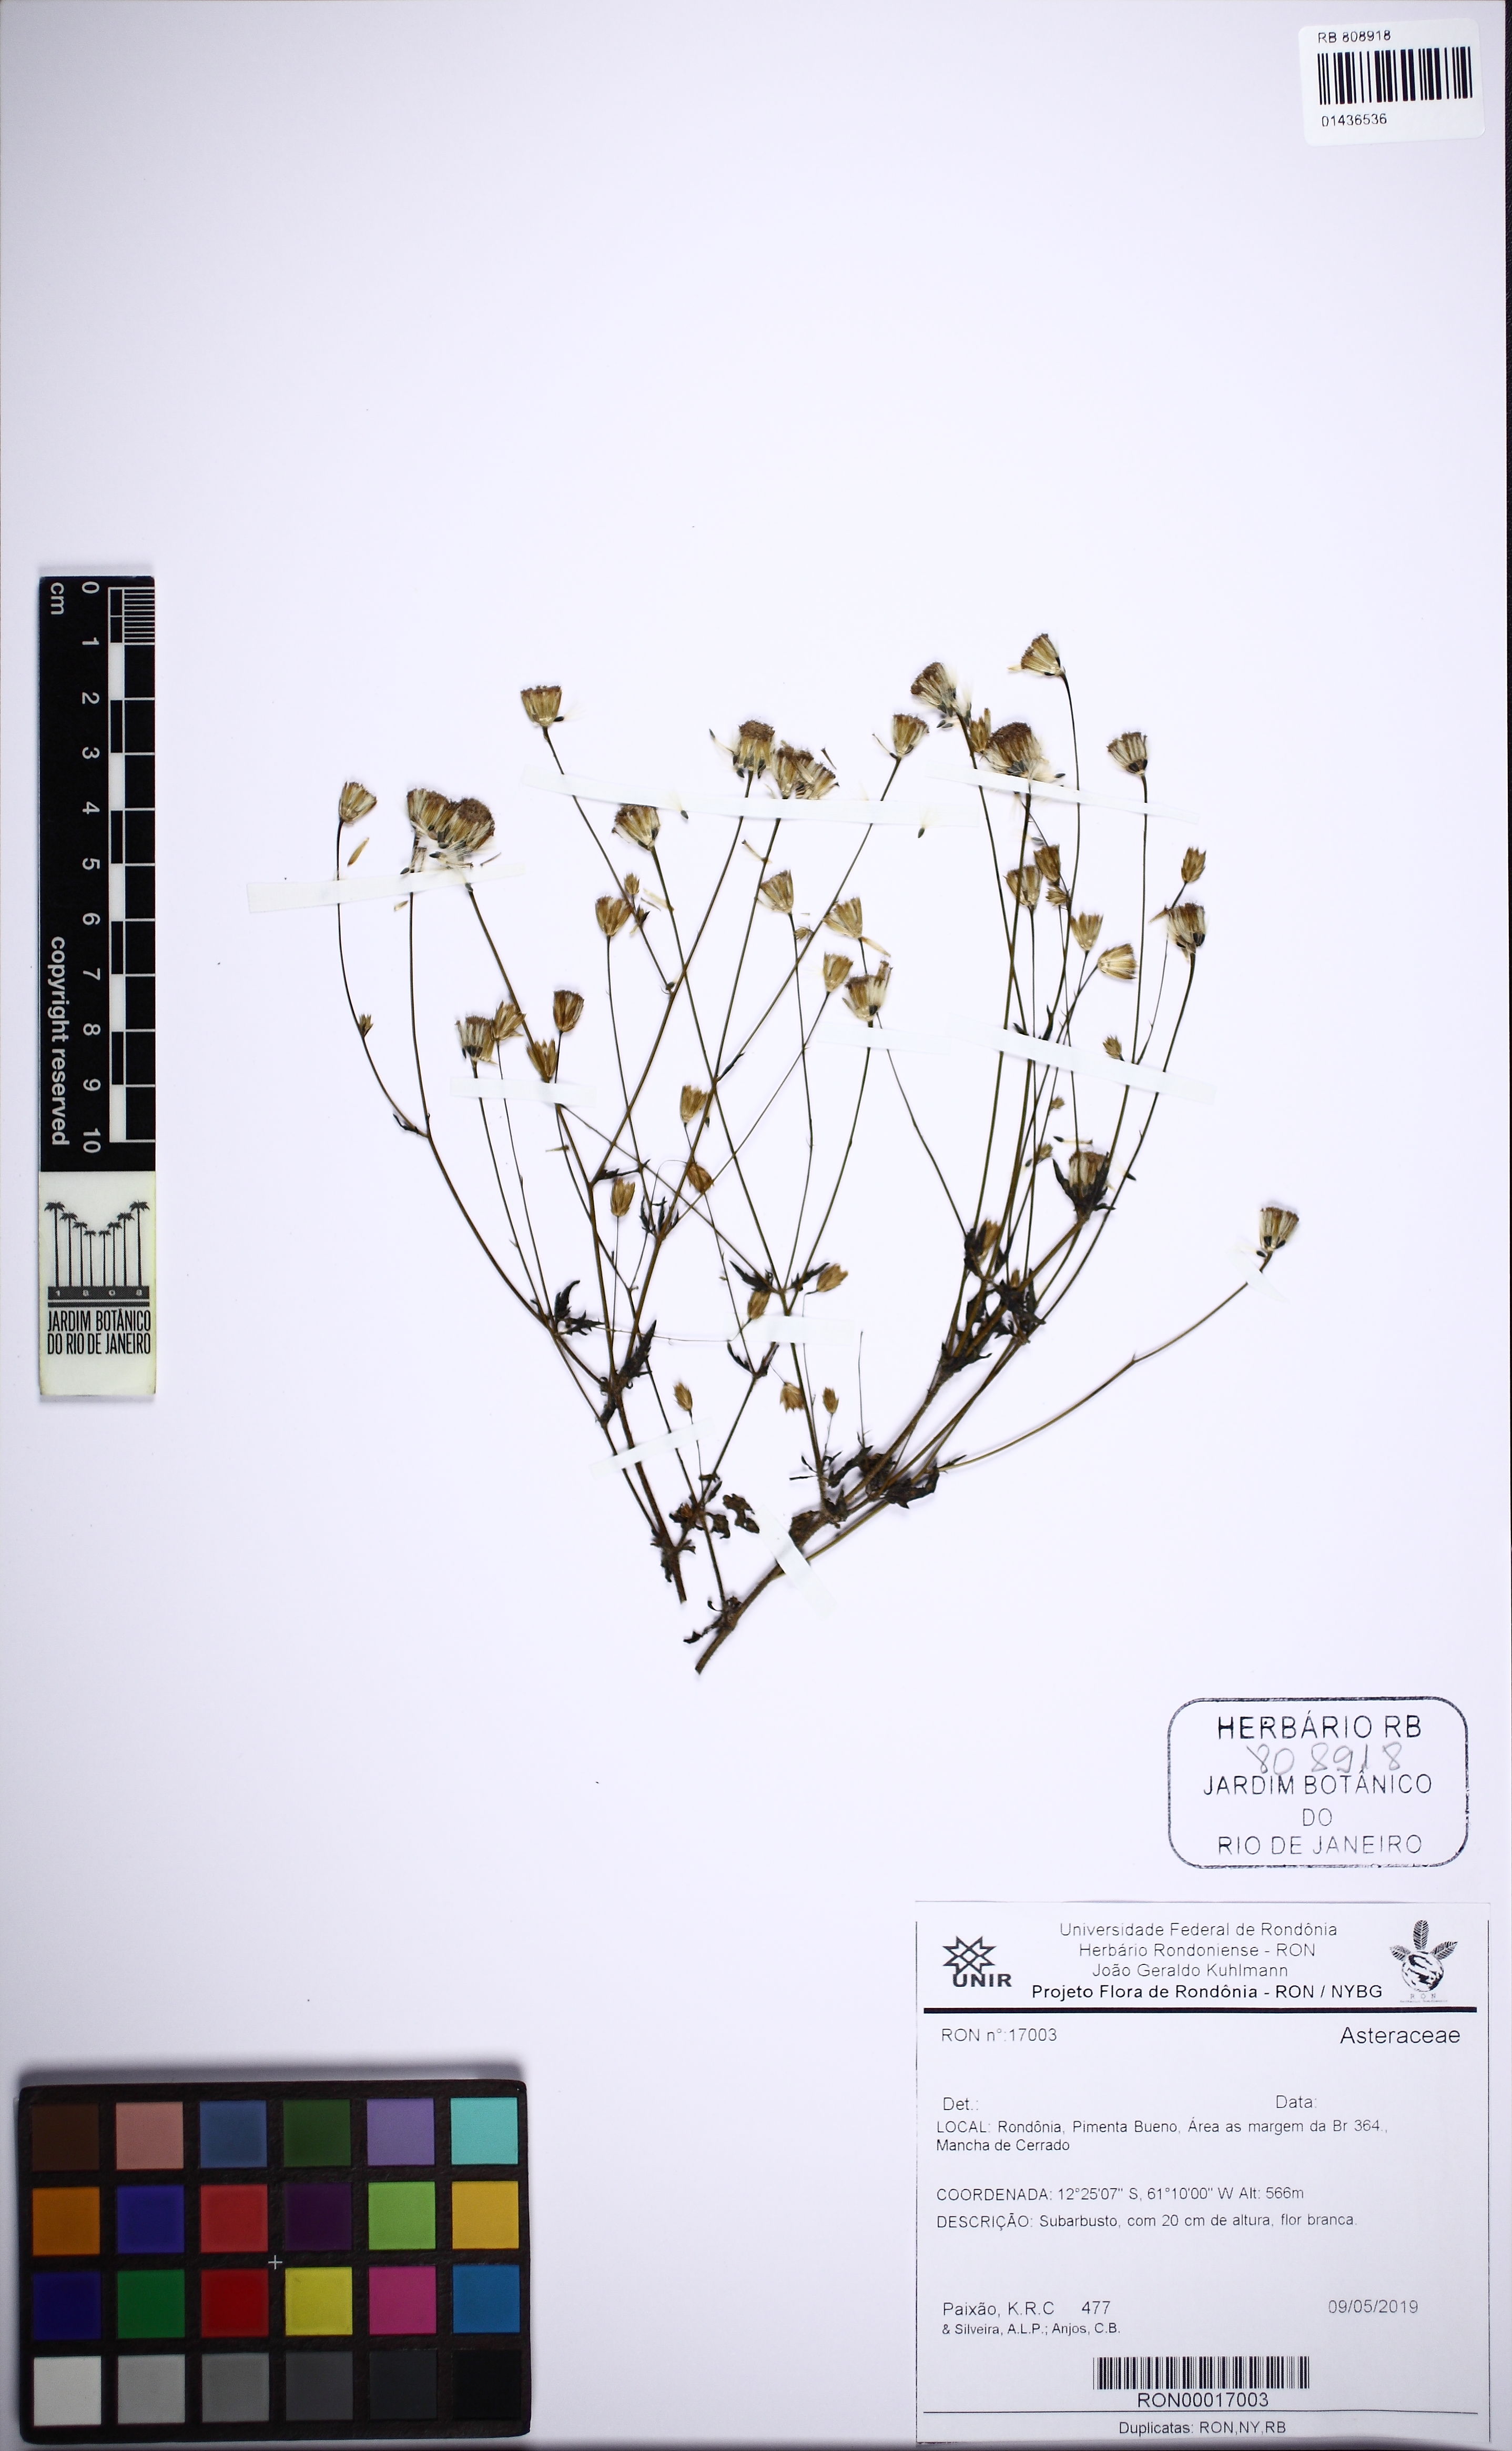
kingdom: Plantae
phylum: Tracheophyta
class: Magnoliopsida
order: Asterales
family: Asteraceae
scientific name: Asteraceae
